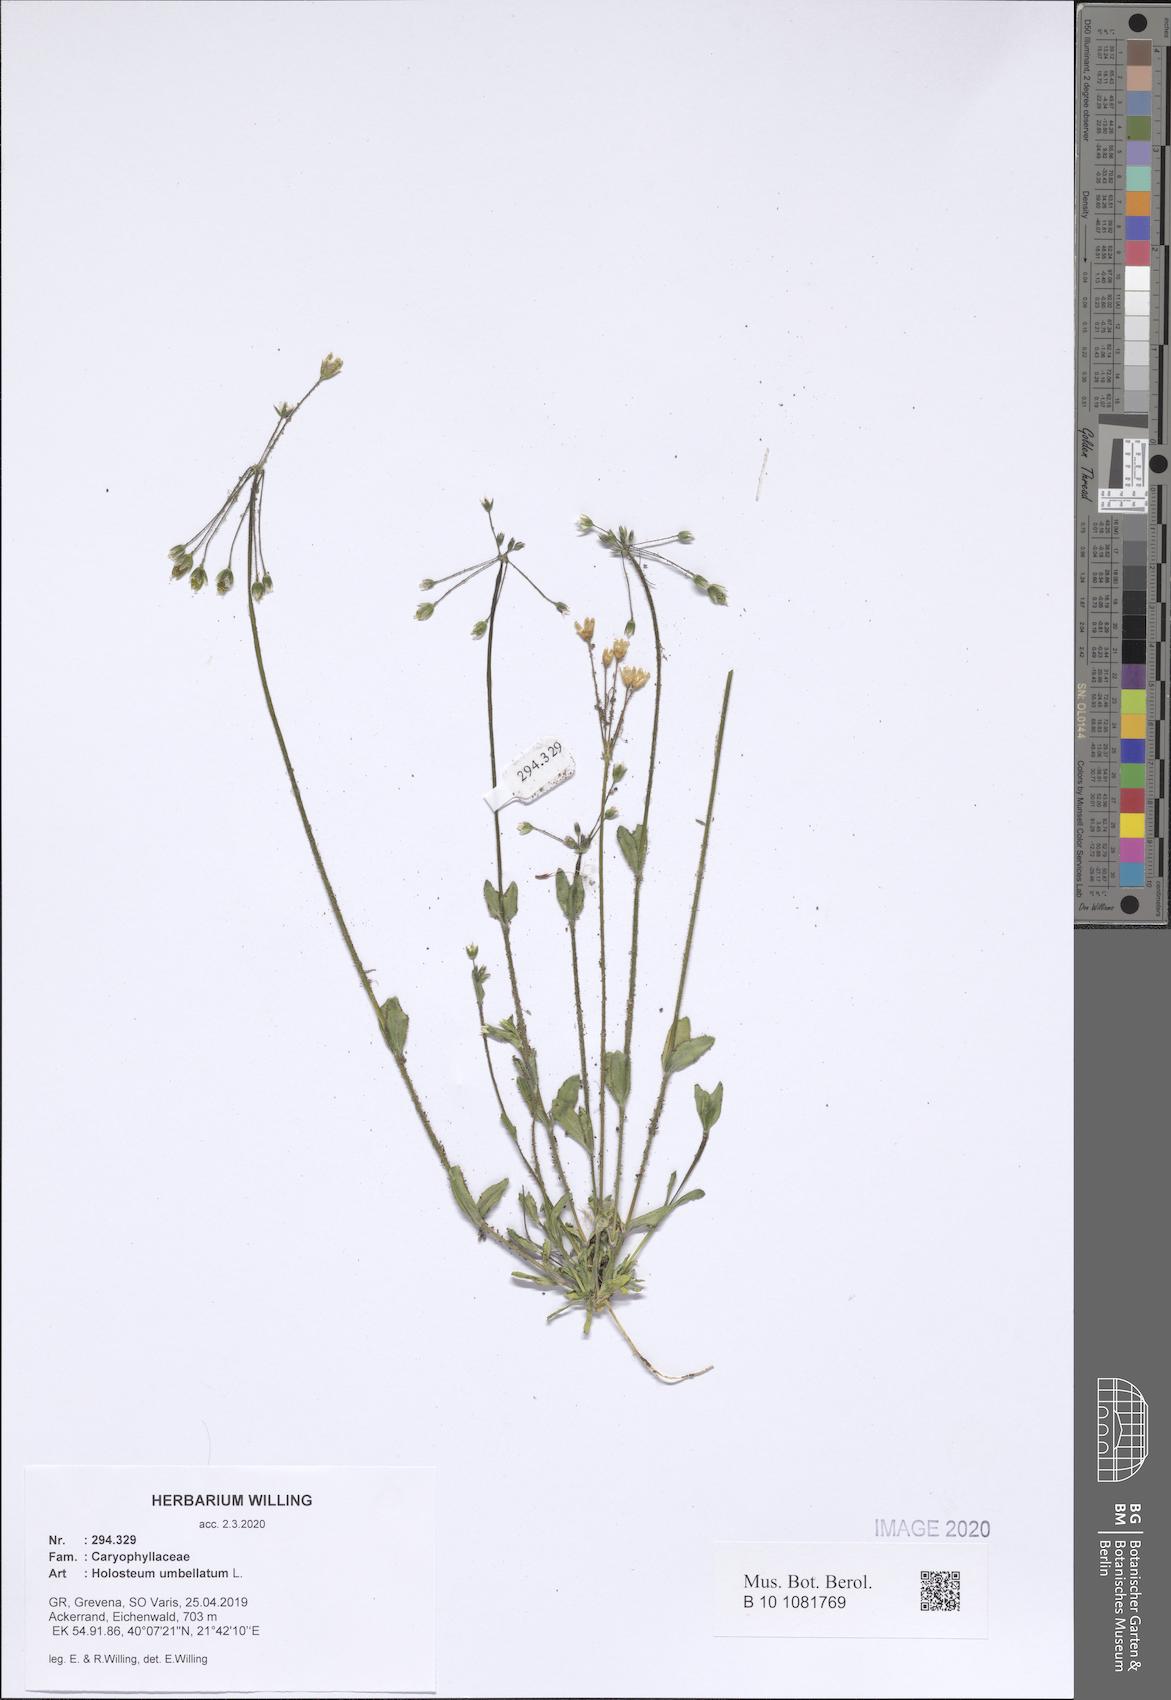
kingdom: Plantae
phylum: Tracheophyta
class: Magnoliopsida
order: Caryophyllales
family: Caryophyllaceae
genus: Holosteum
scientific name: Holosteum umbellatum
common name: Jagged chickweed
